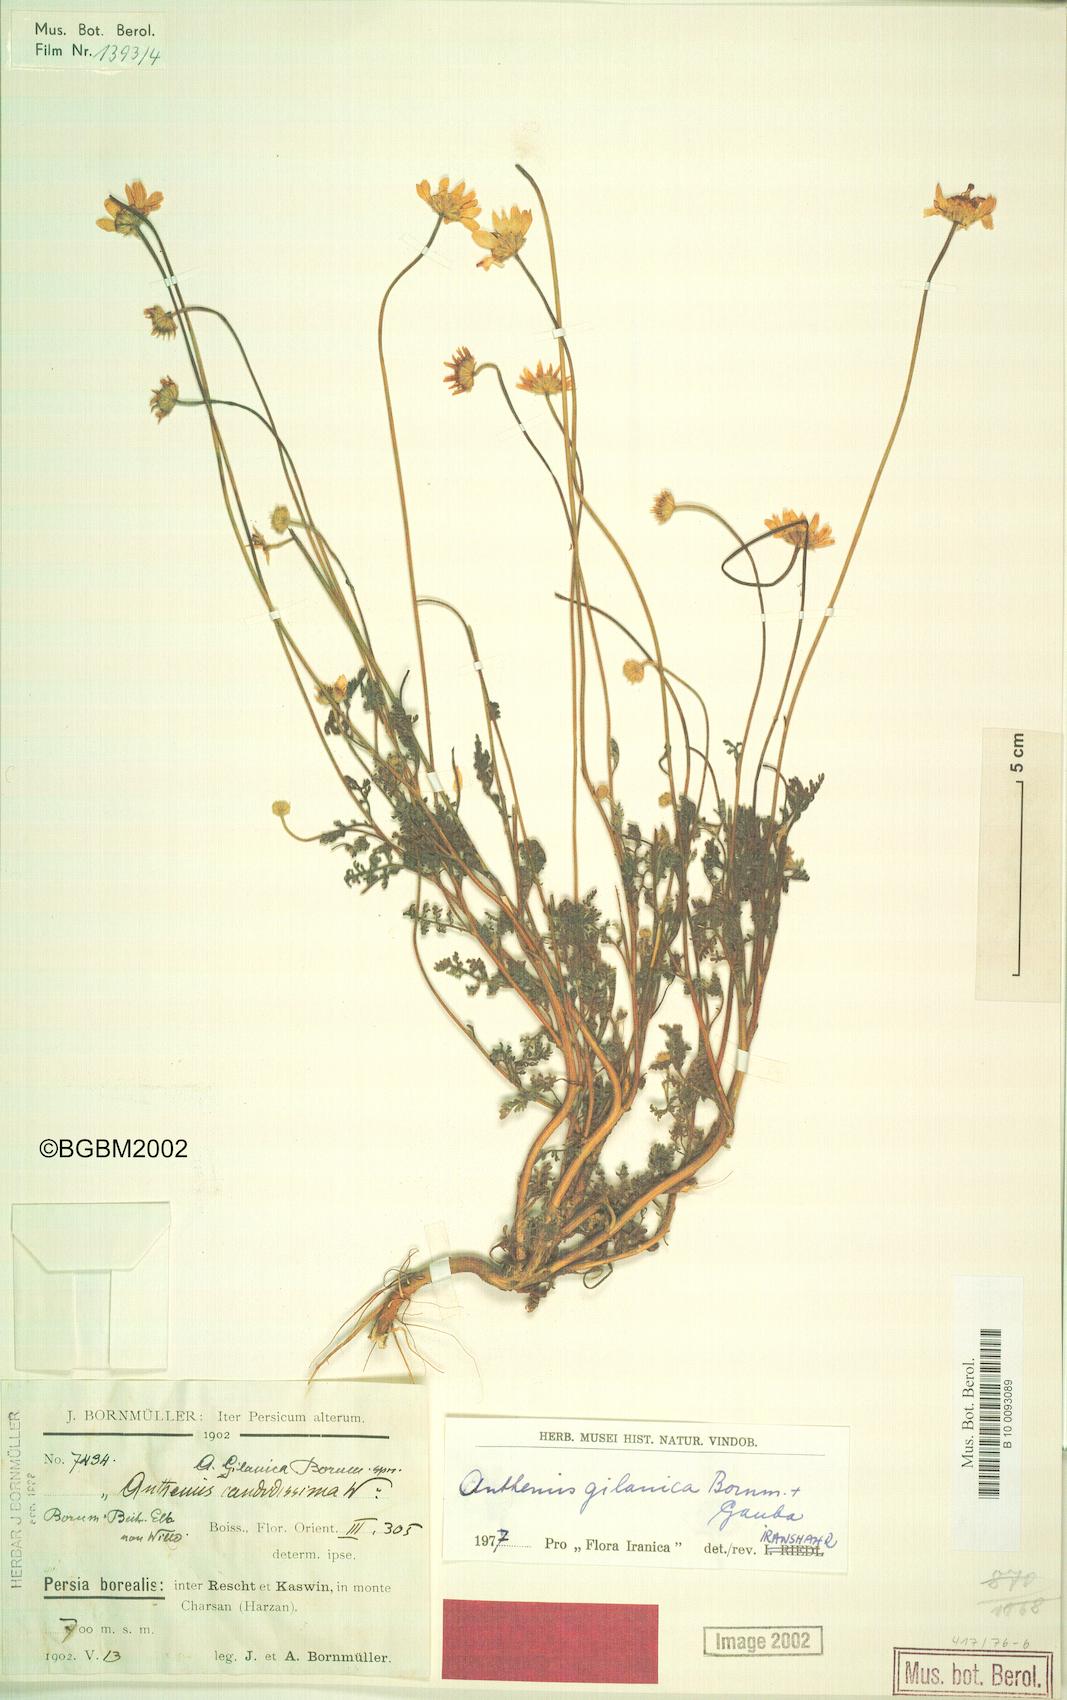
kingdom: Plantae
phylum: Tracheophyta
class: Magnoliopsida
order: Asterales
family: Asteraceae
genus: Anthemis
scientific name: Anthemis gilanica
